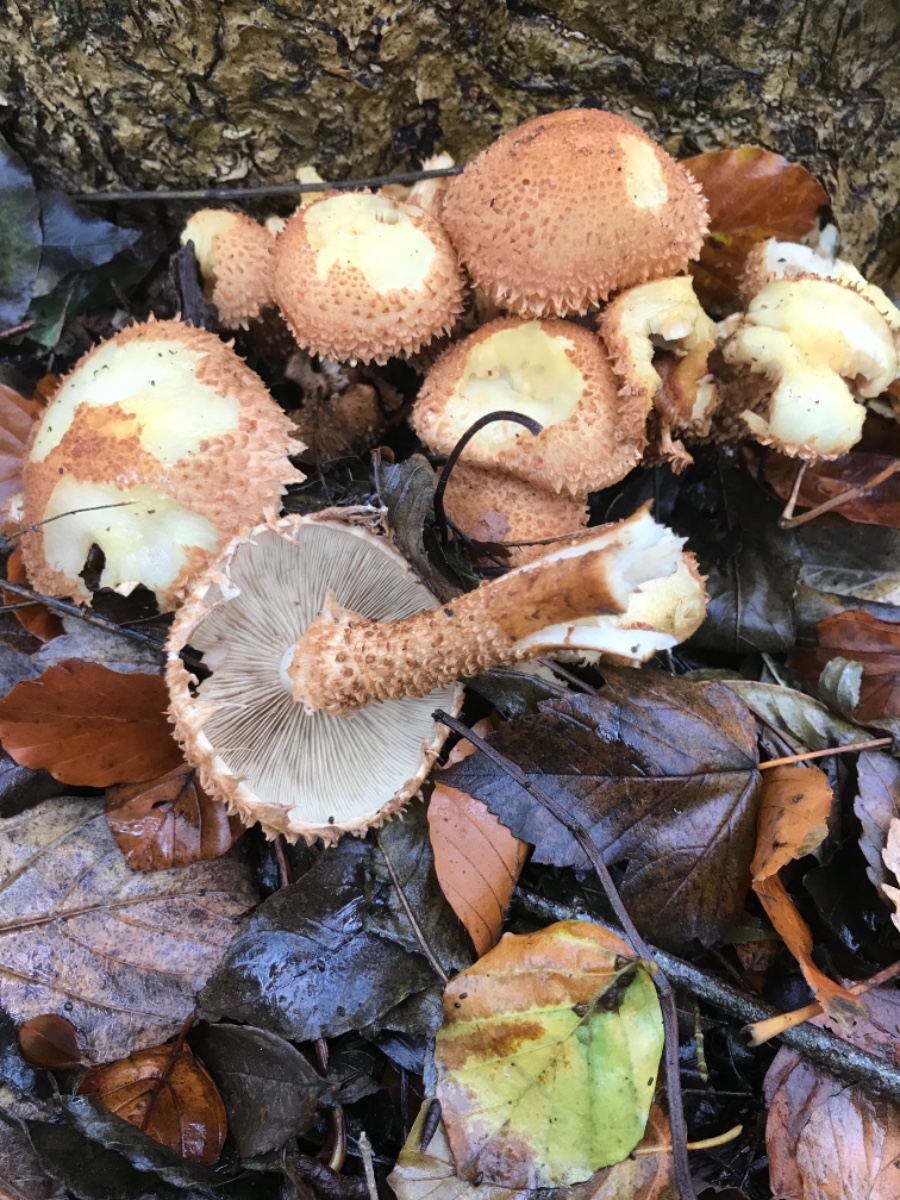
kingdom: Fungi
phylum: Basidiomycota
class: Agaricomycetes
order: Agaricales
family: Strophariaceae
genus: Pholiota
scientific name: Pholiota squarrosa
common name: krumskællet skælhat
